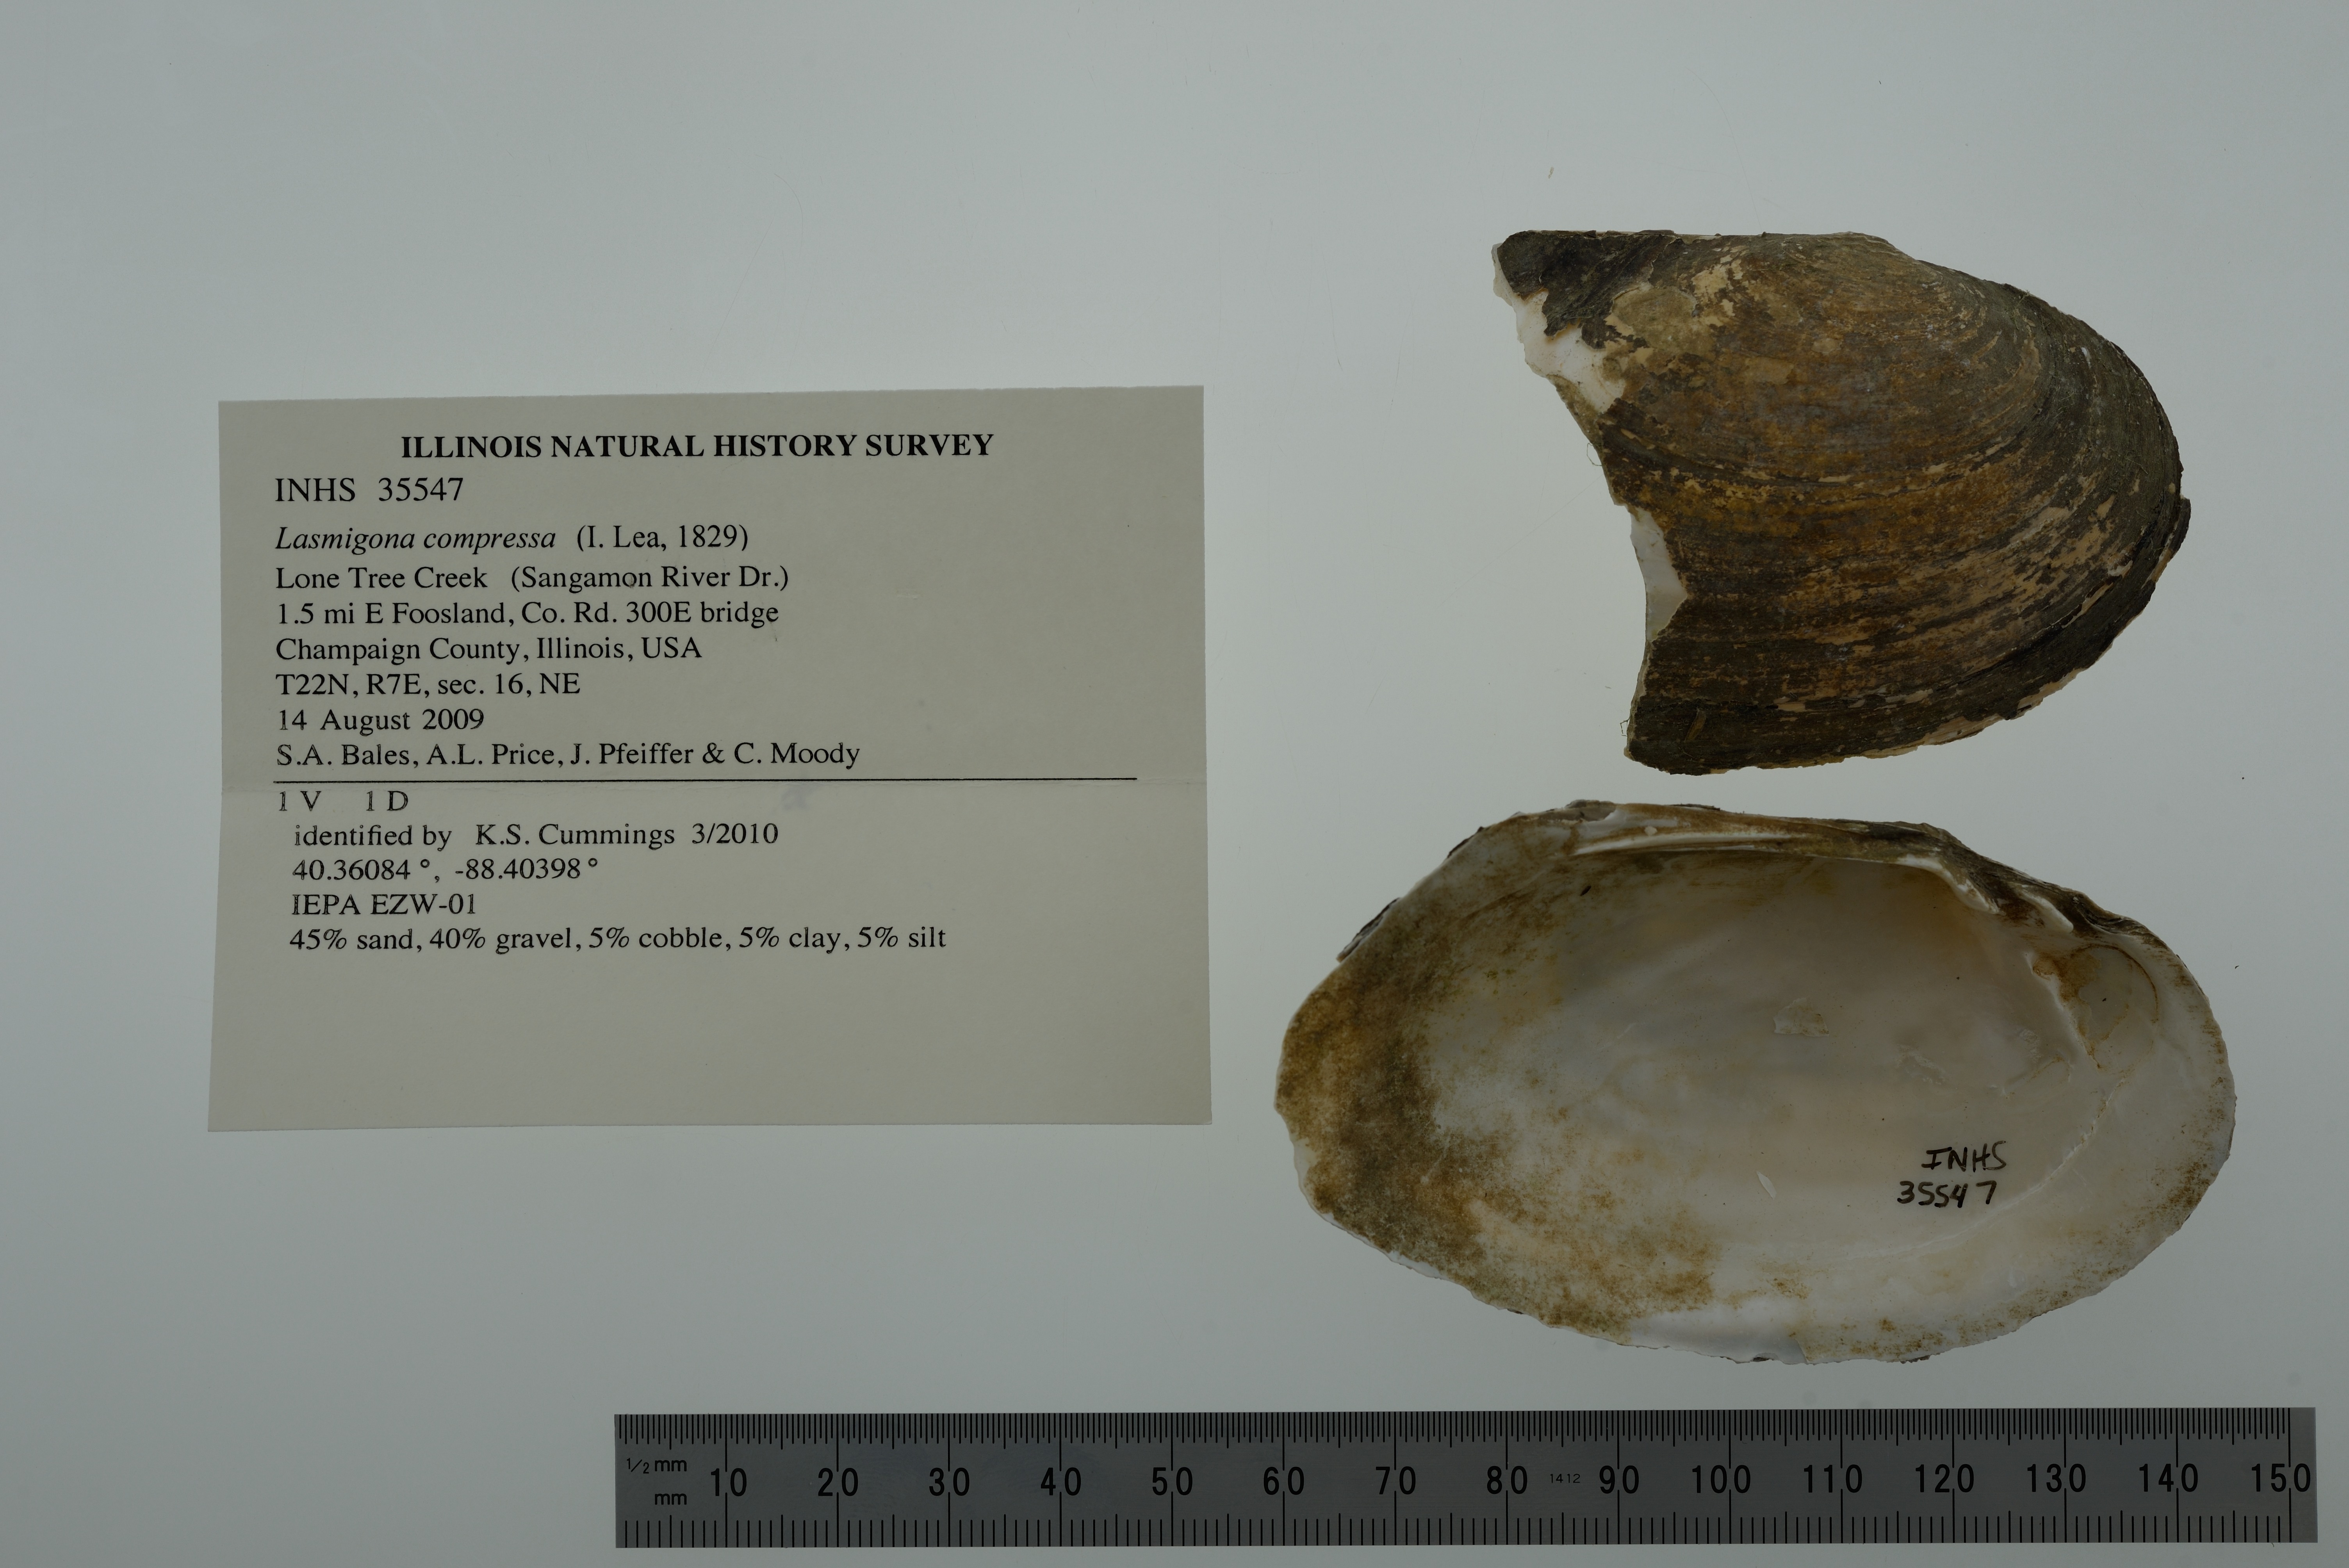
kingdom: Animalia
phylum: Mollusca
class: Bivalvia
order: Unionida
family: Unionidae
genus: Lasmigona
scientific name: Lasmigona compressa
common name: Creek heelsplitter
